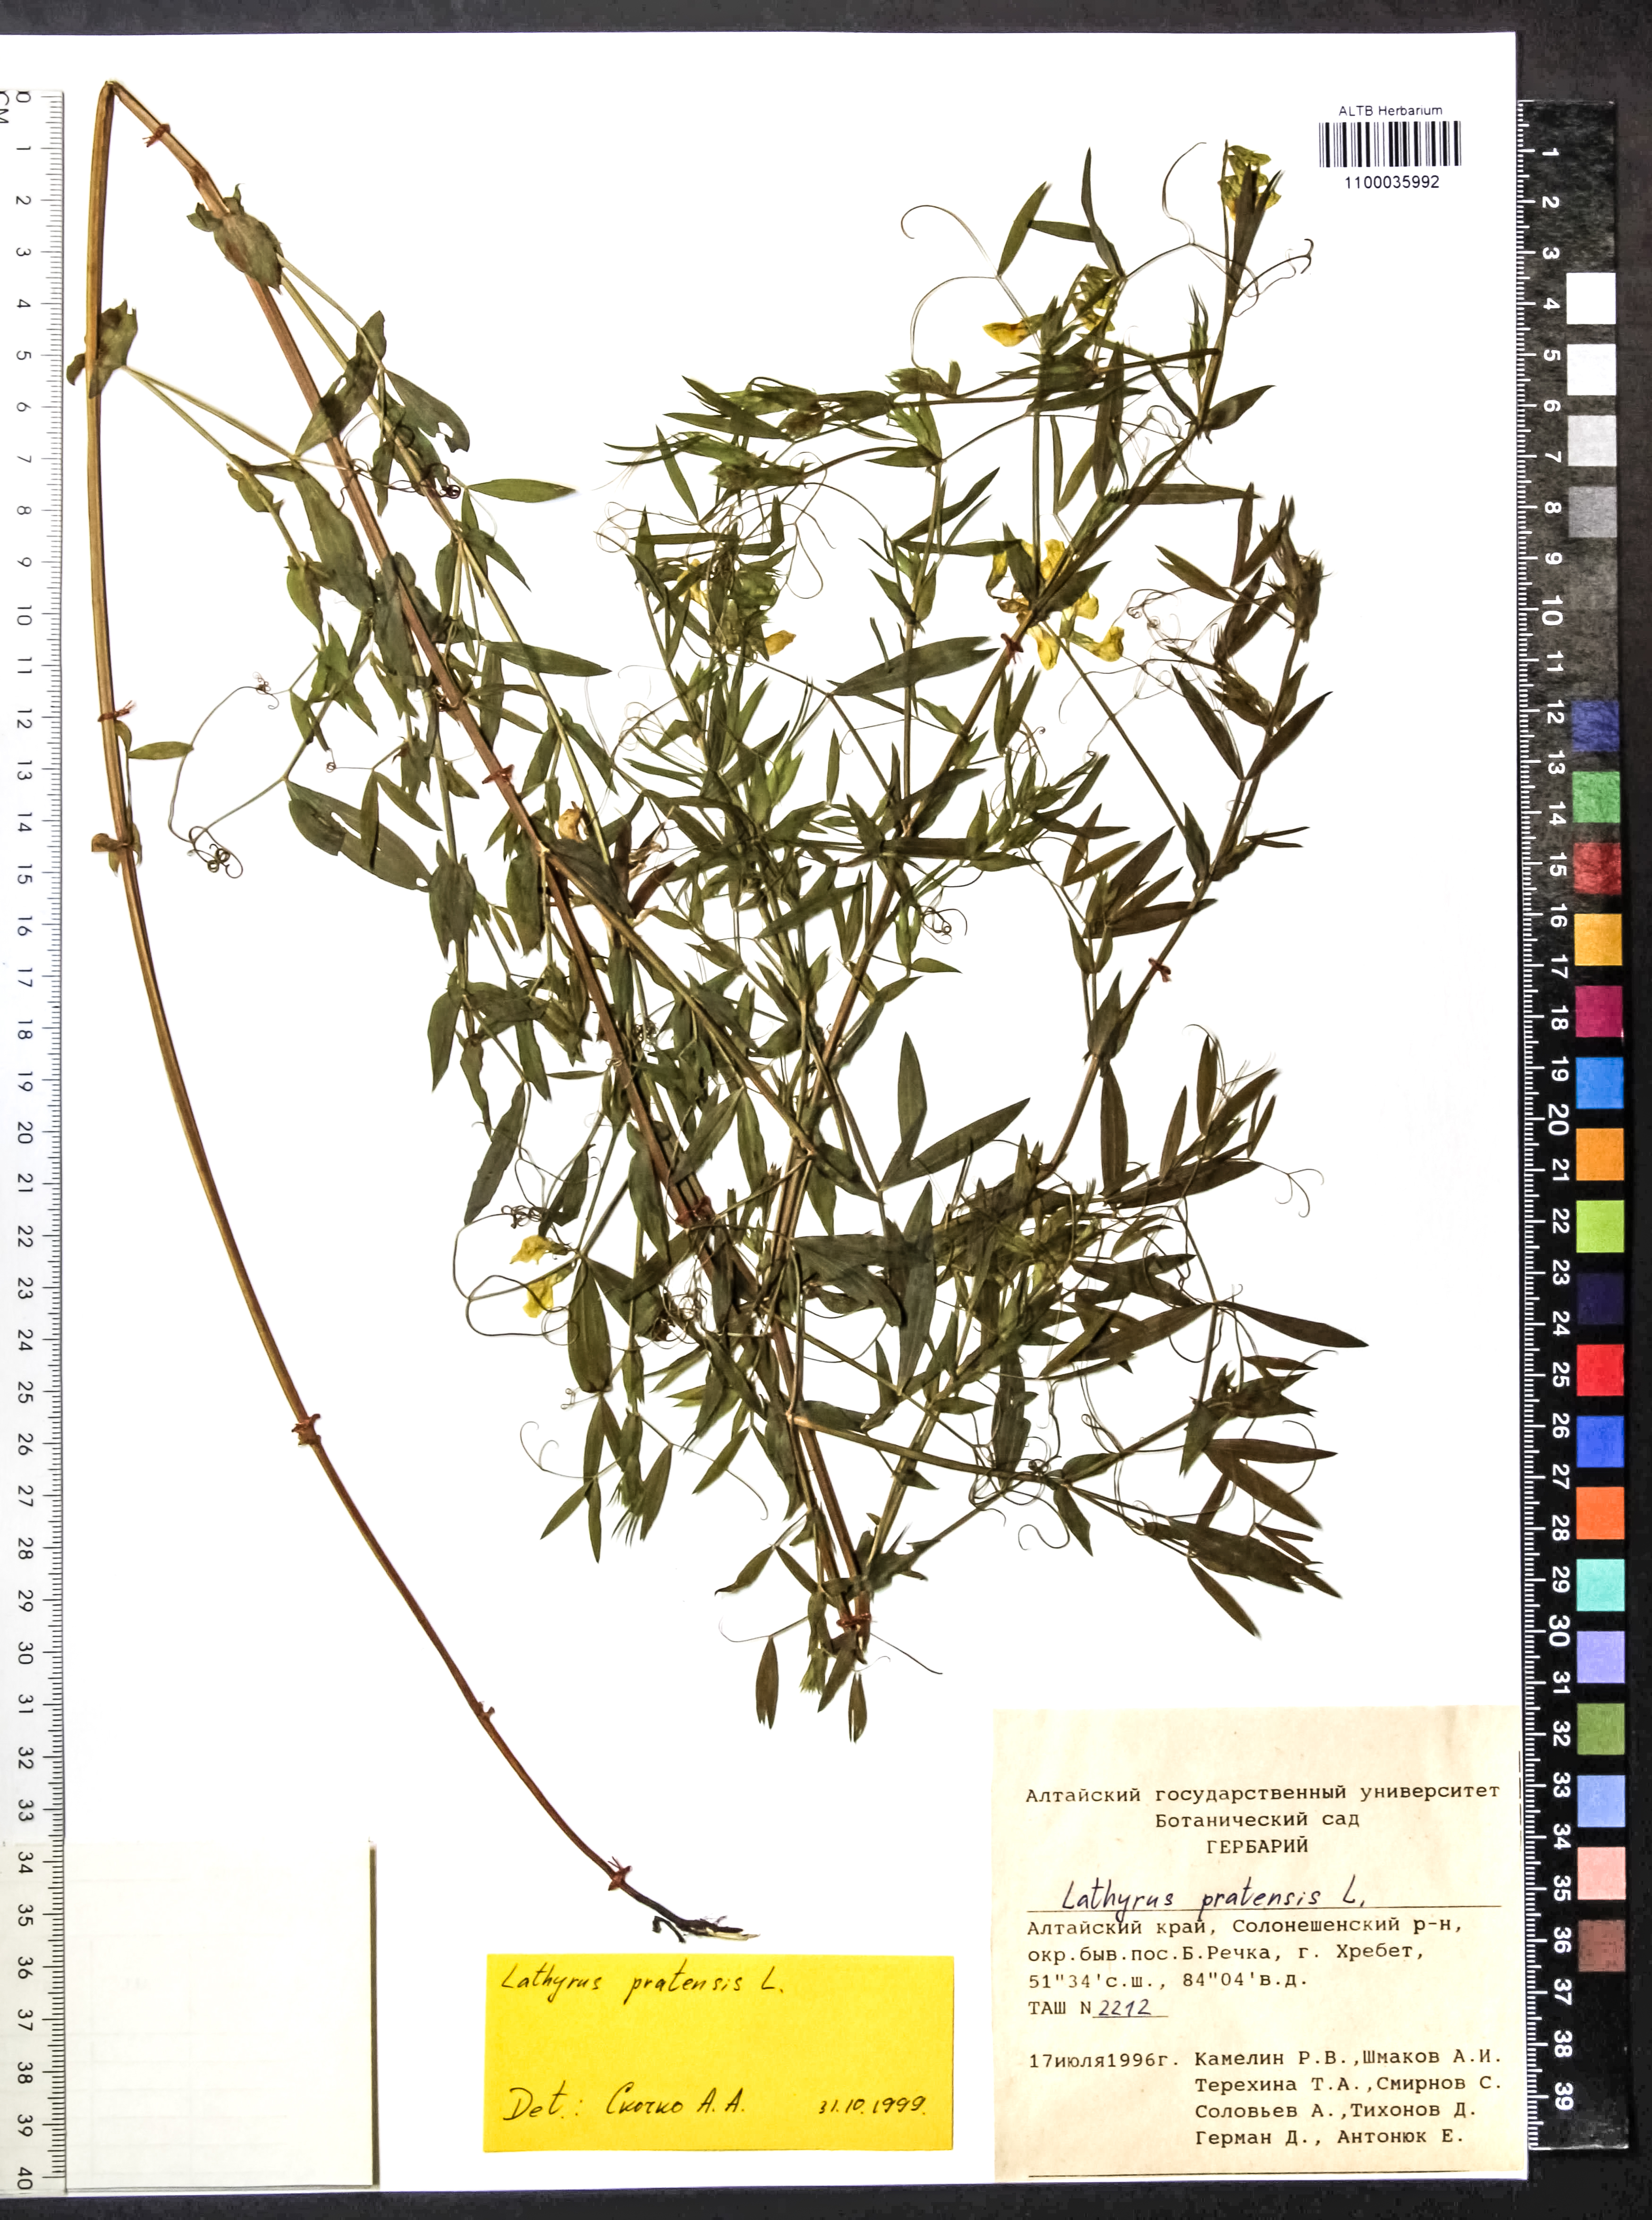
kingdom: Plantae
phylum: Tracheophyta
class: Magnoliopsida
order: Fabales
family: Fabaceae
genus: Lathyrus
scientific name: Lathyrus pratensis
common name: Meadow vetchling
